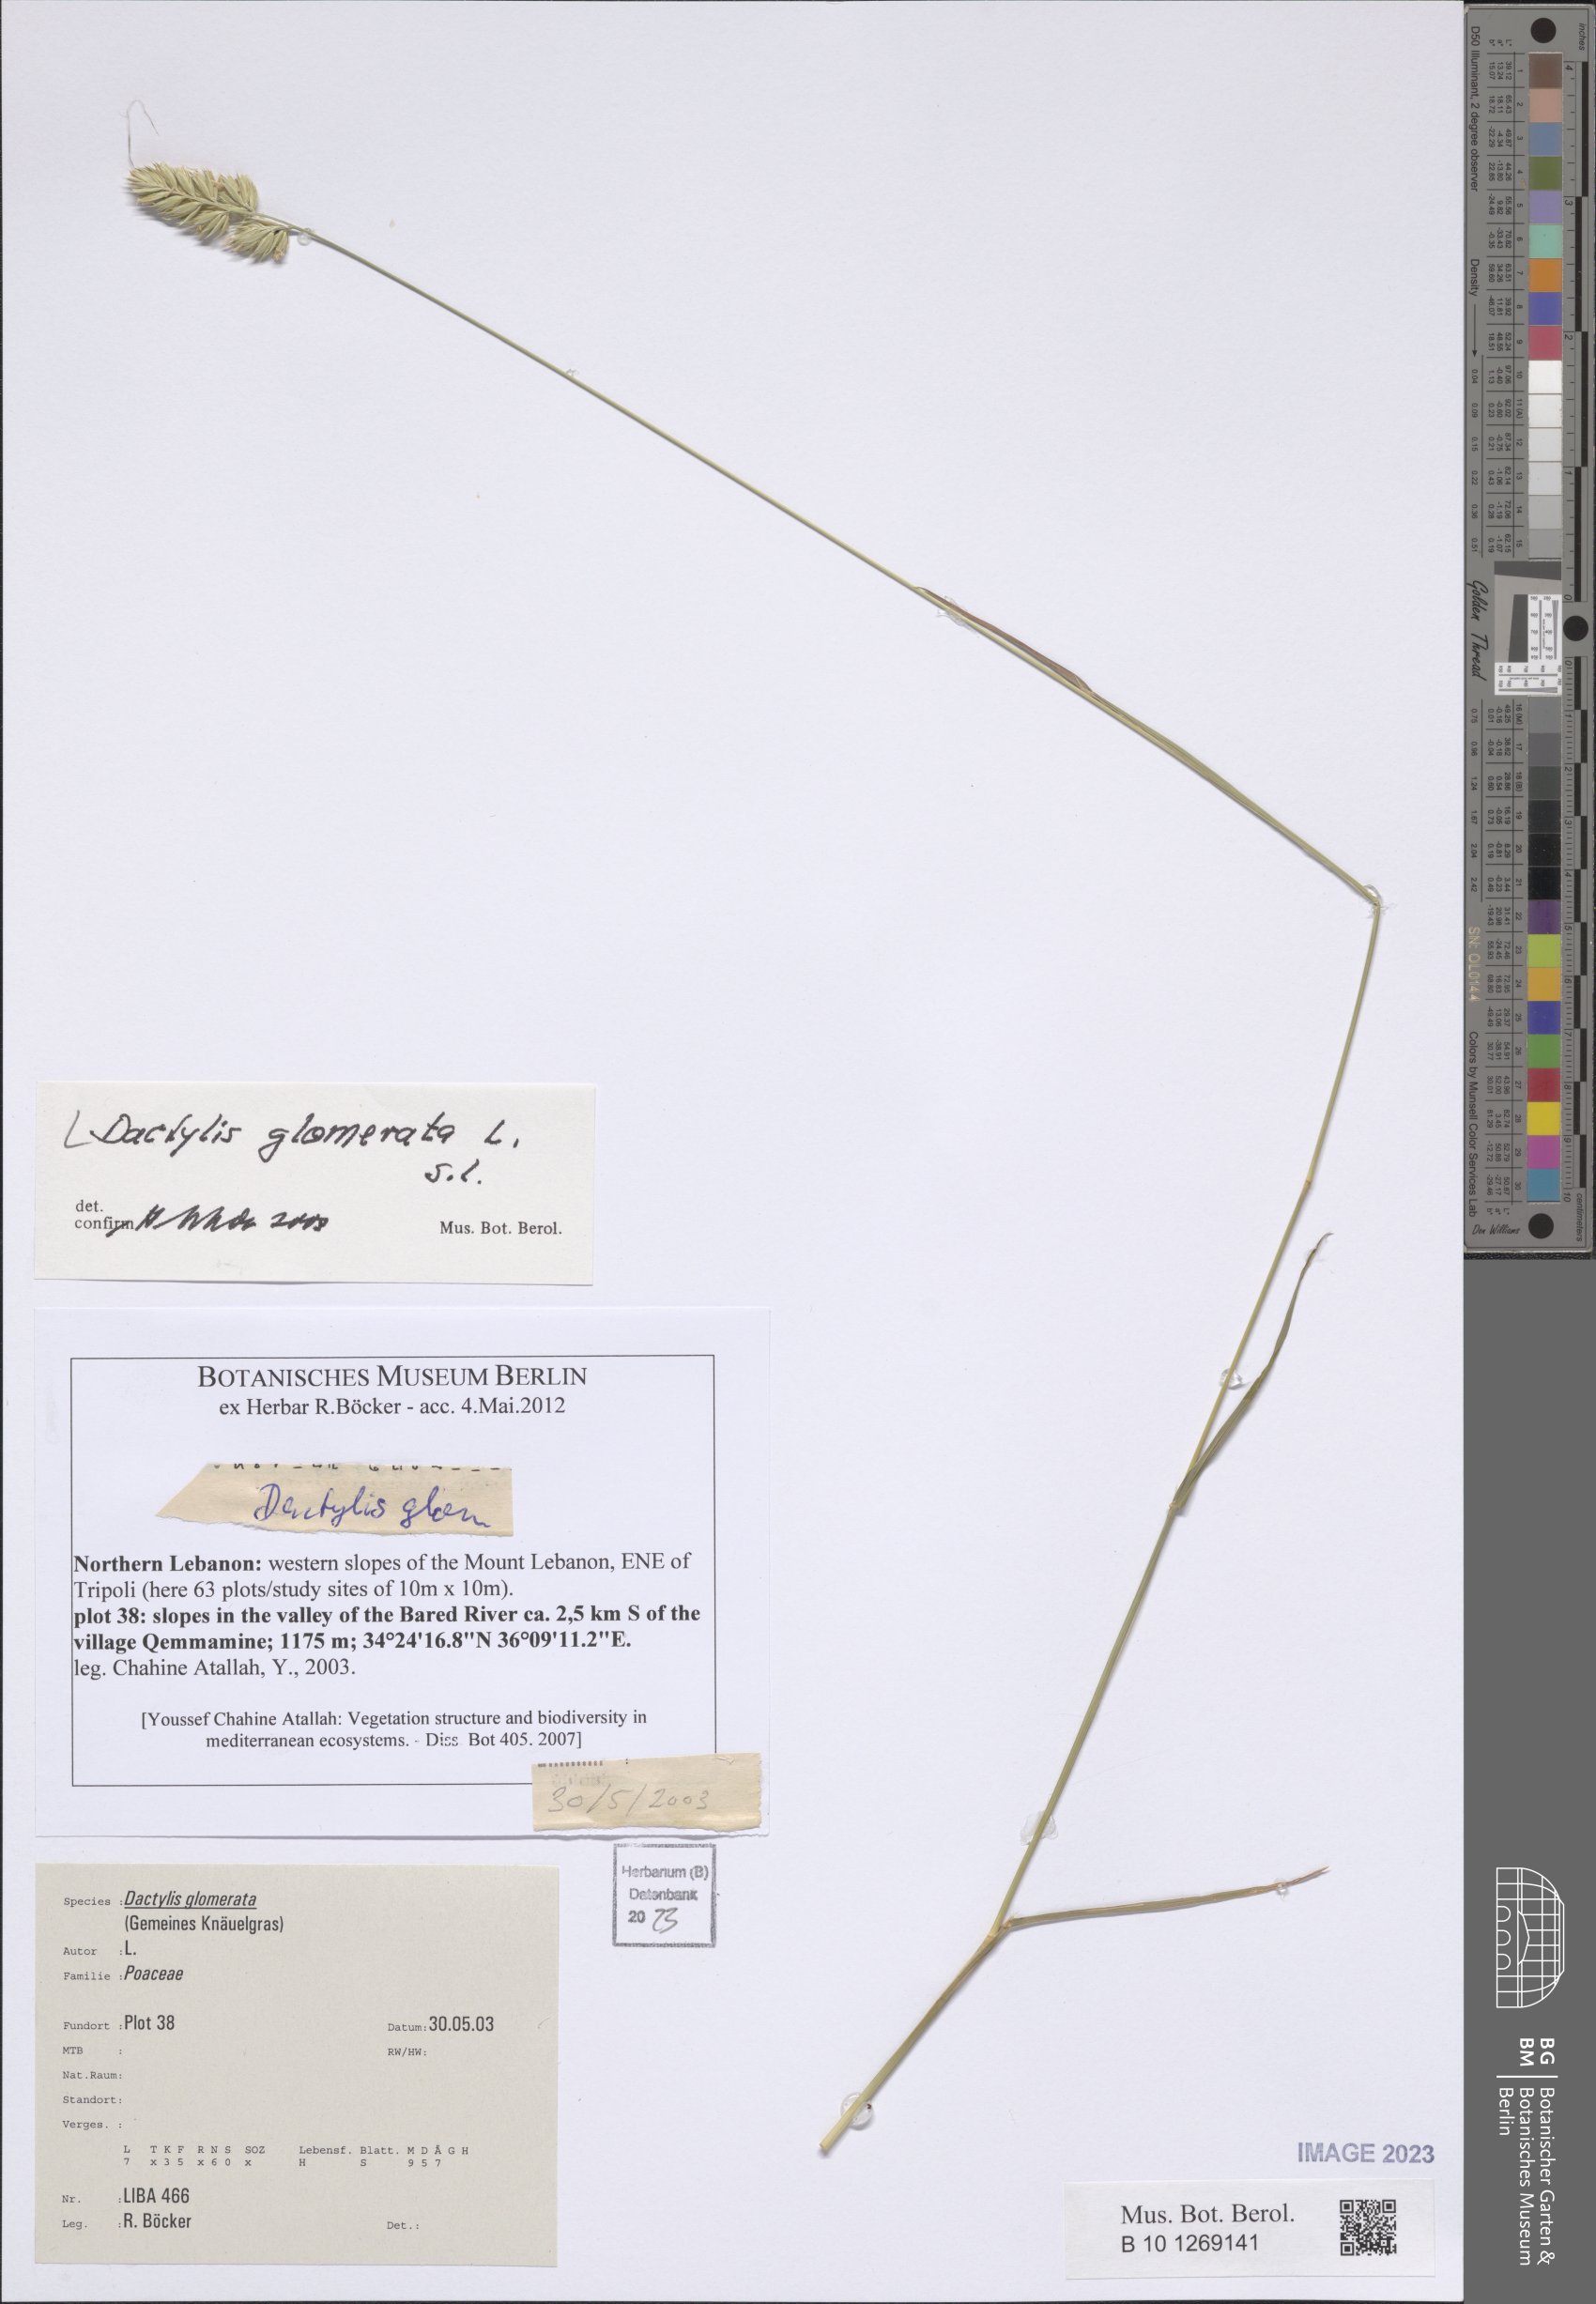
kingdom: Plantae
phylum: Tracheophyta
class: Liliopsida
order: Poales
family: Poaceae
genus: Dactylis
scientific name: Dactylis glomerata
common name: Orchardgrass
